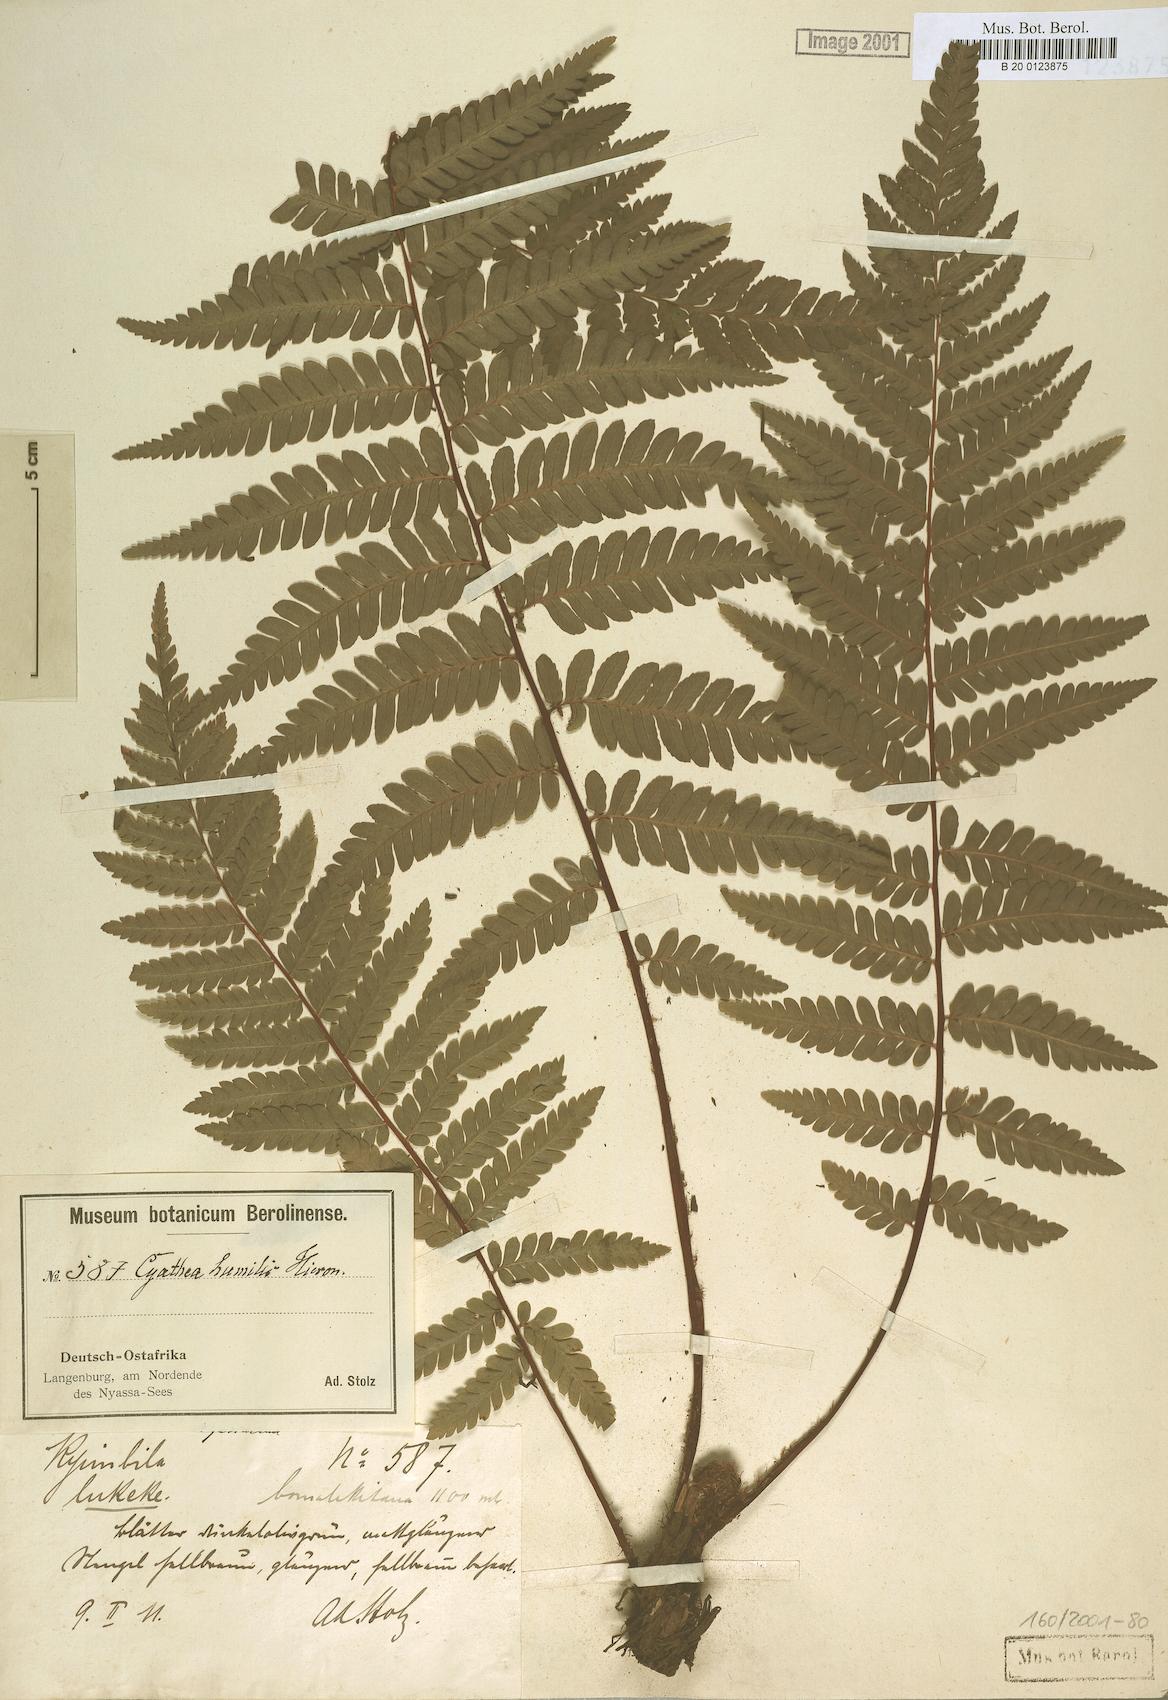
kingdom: Plantae
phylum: Tracheophyta
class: Polypodiopsida
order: Cyatheales
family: Cyatheaceae
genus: Alsophila
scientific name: Alsophila humilis
